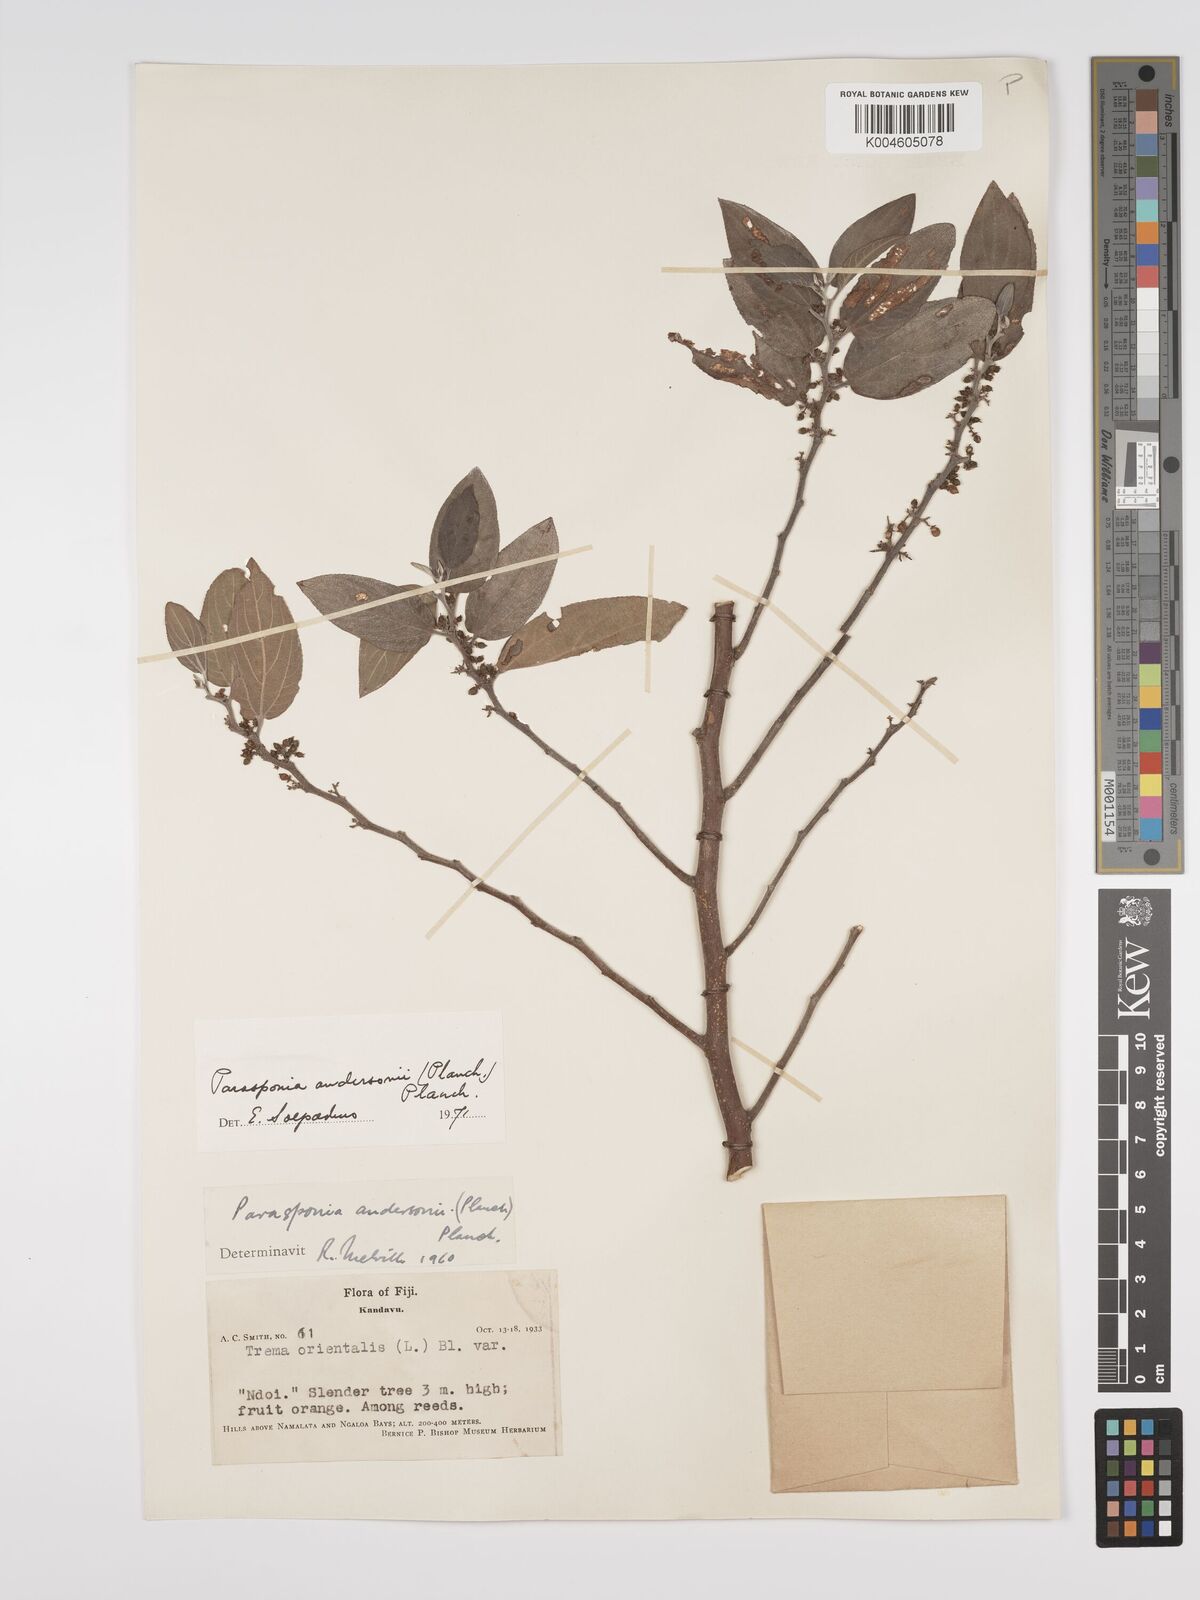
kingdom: Plantae
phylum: Tracheophyta
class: Magnoliopsida
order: Rosales
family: Cannabaceae
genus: Trema
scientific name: Trema andersonii
